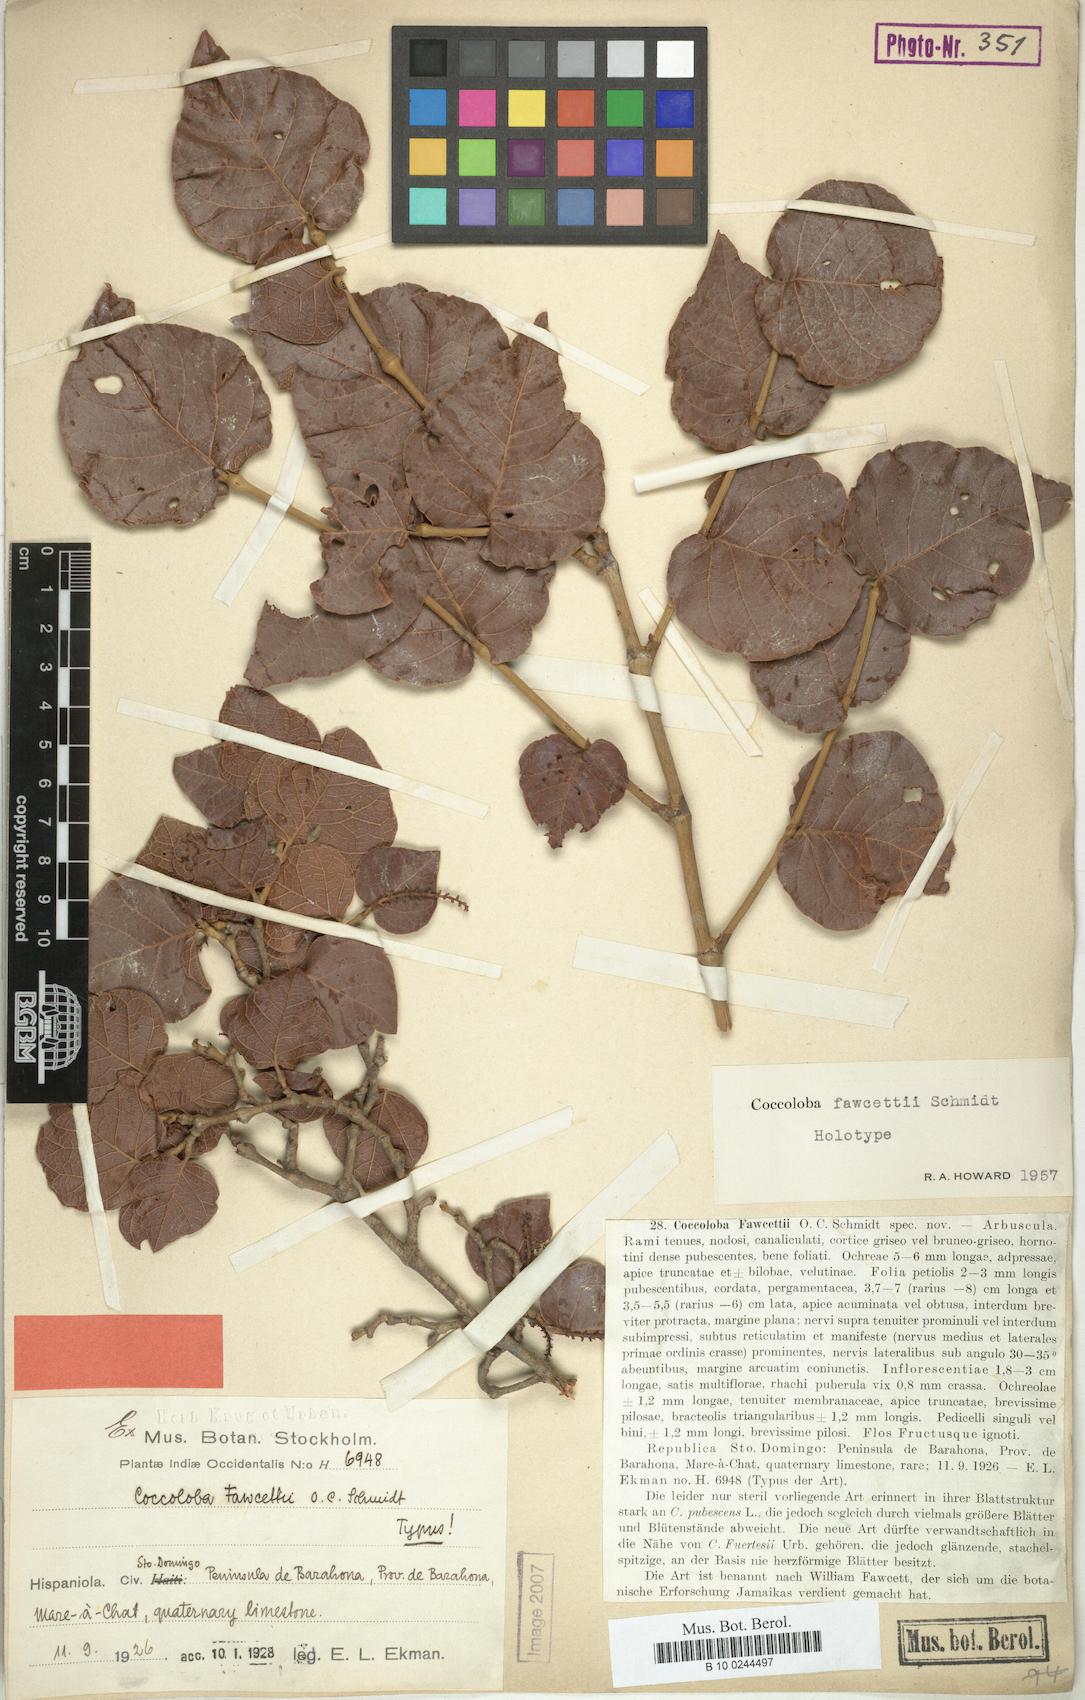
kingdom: Plantae
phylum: Tracheophyta
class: Magnoliopsida
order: Caryophyllales
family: Polygonaceae
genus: Coccoloba
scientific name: Coccoloba fawcettii
